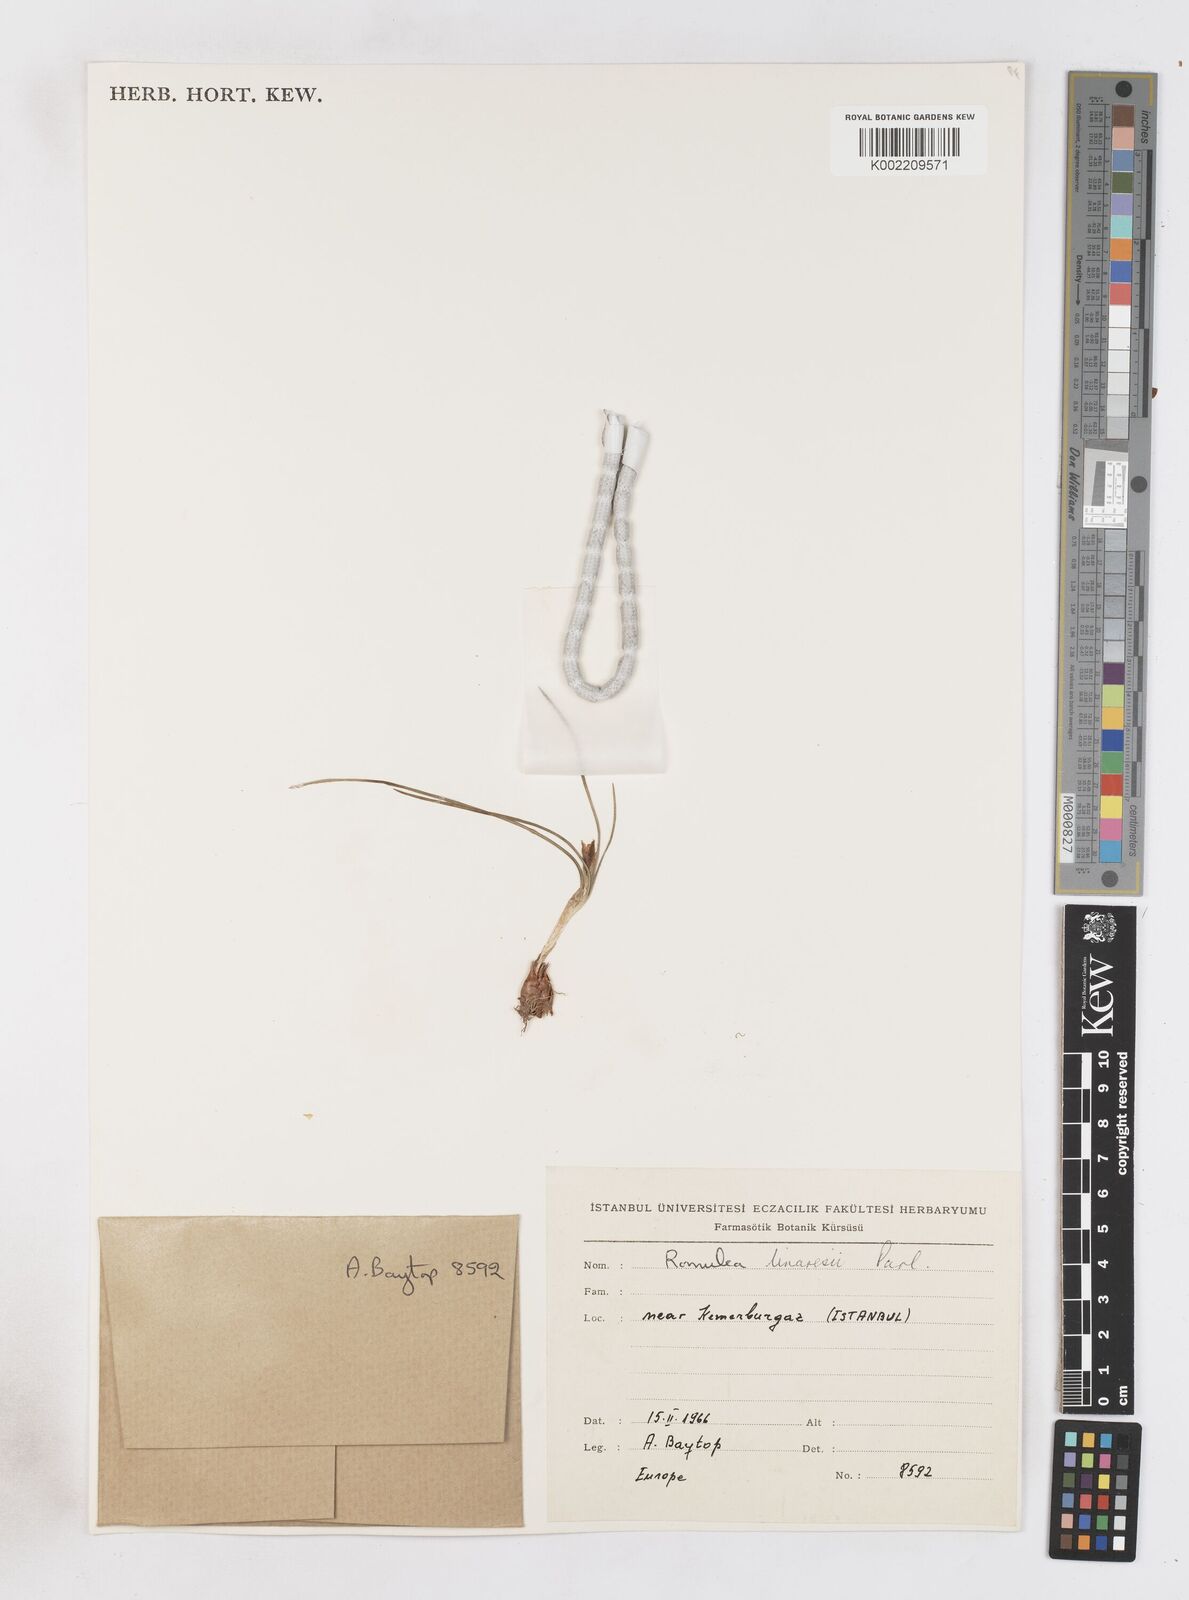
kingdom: Plantae
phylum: Tracheophyta
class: Liliopsida
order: Asparagales
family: Iridaceae
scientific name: Iridaceae
